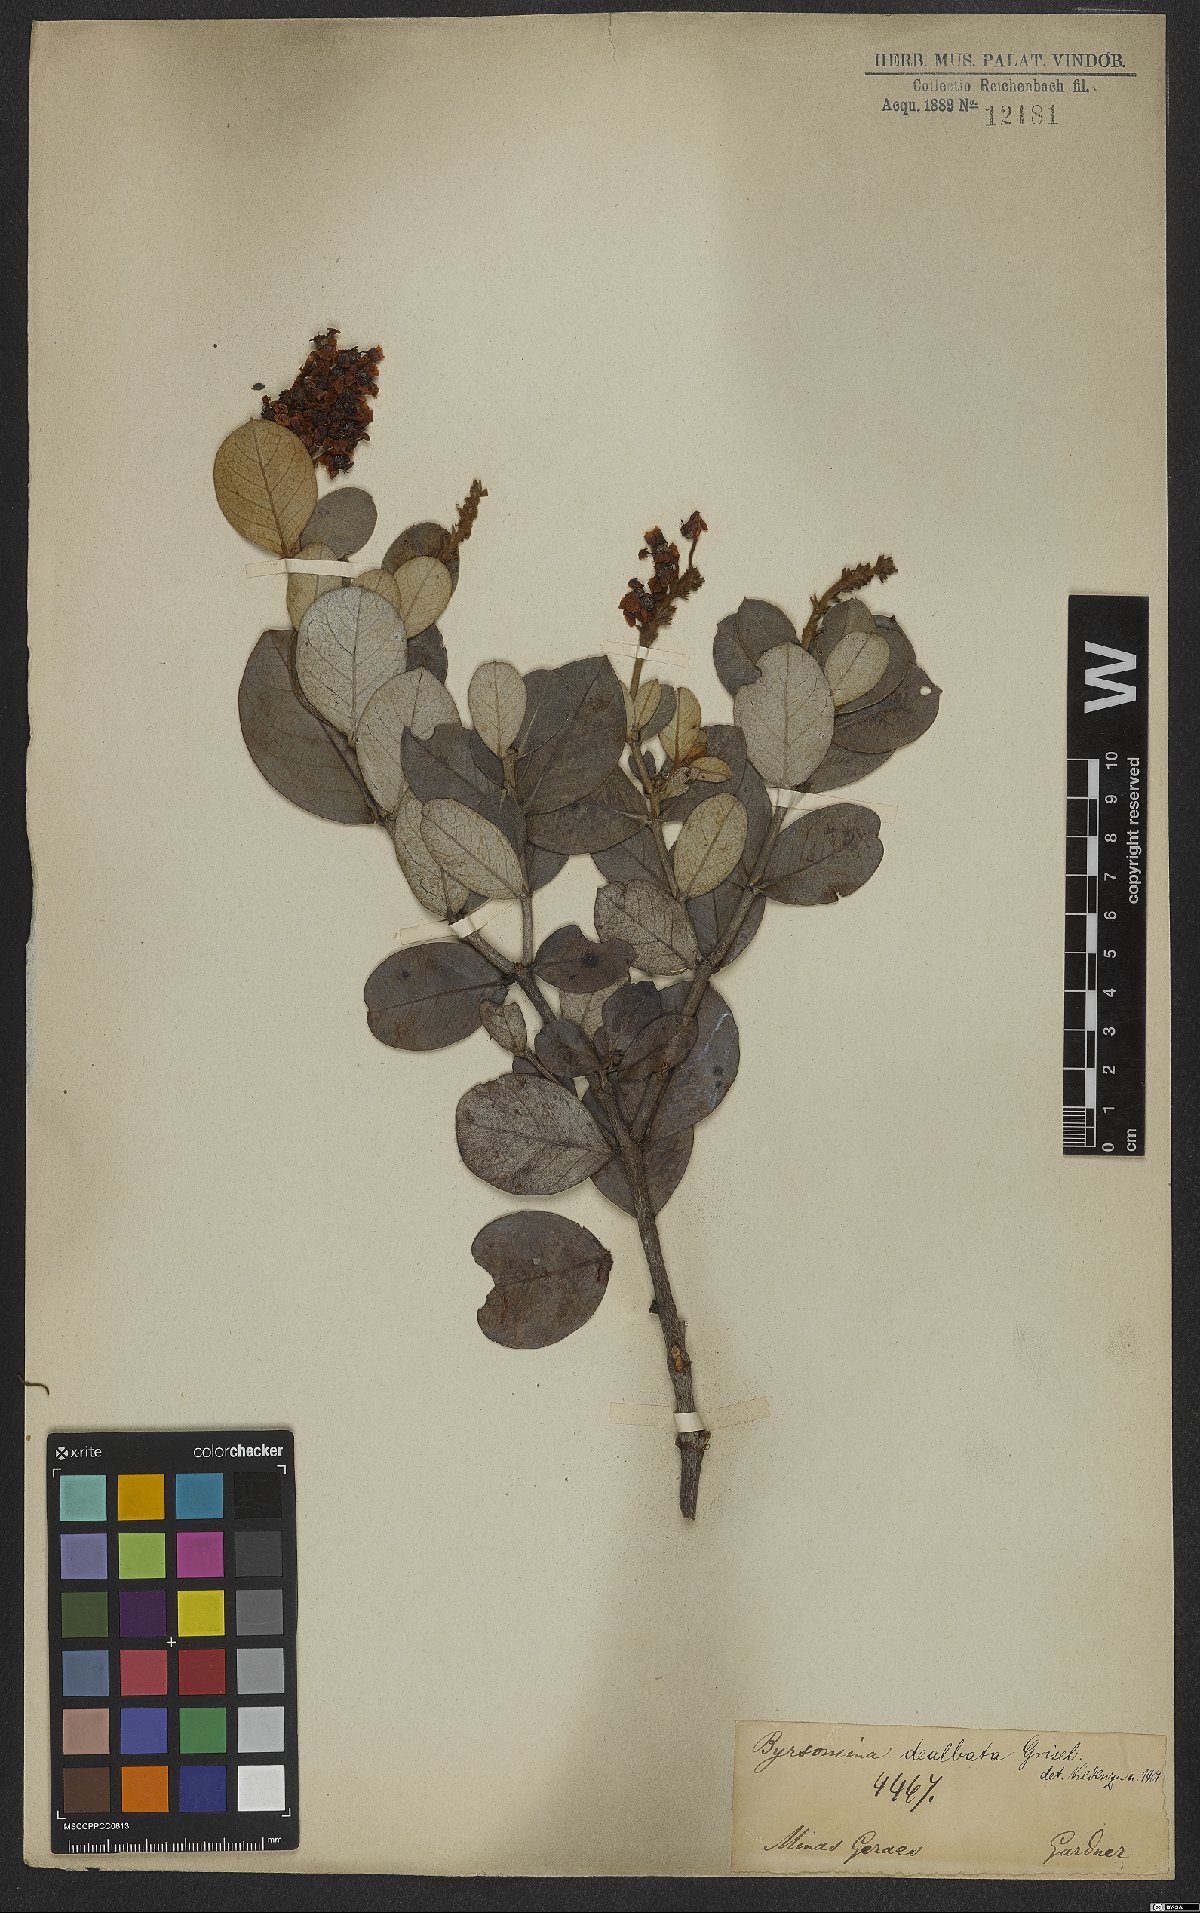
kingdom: Plantae
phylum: Tracheophyta
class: Magnoliopsida
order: Malpighiales
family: Malpighiaceae
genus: Byrsonima
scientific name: Byrsonima dealbata
